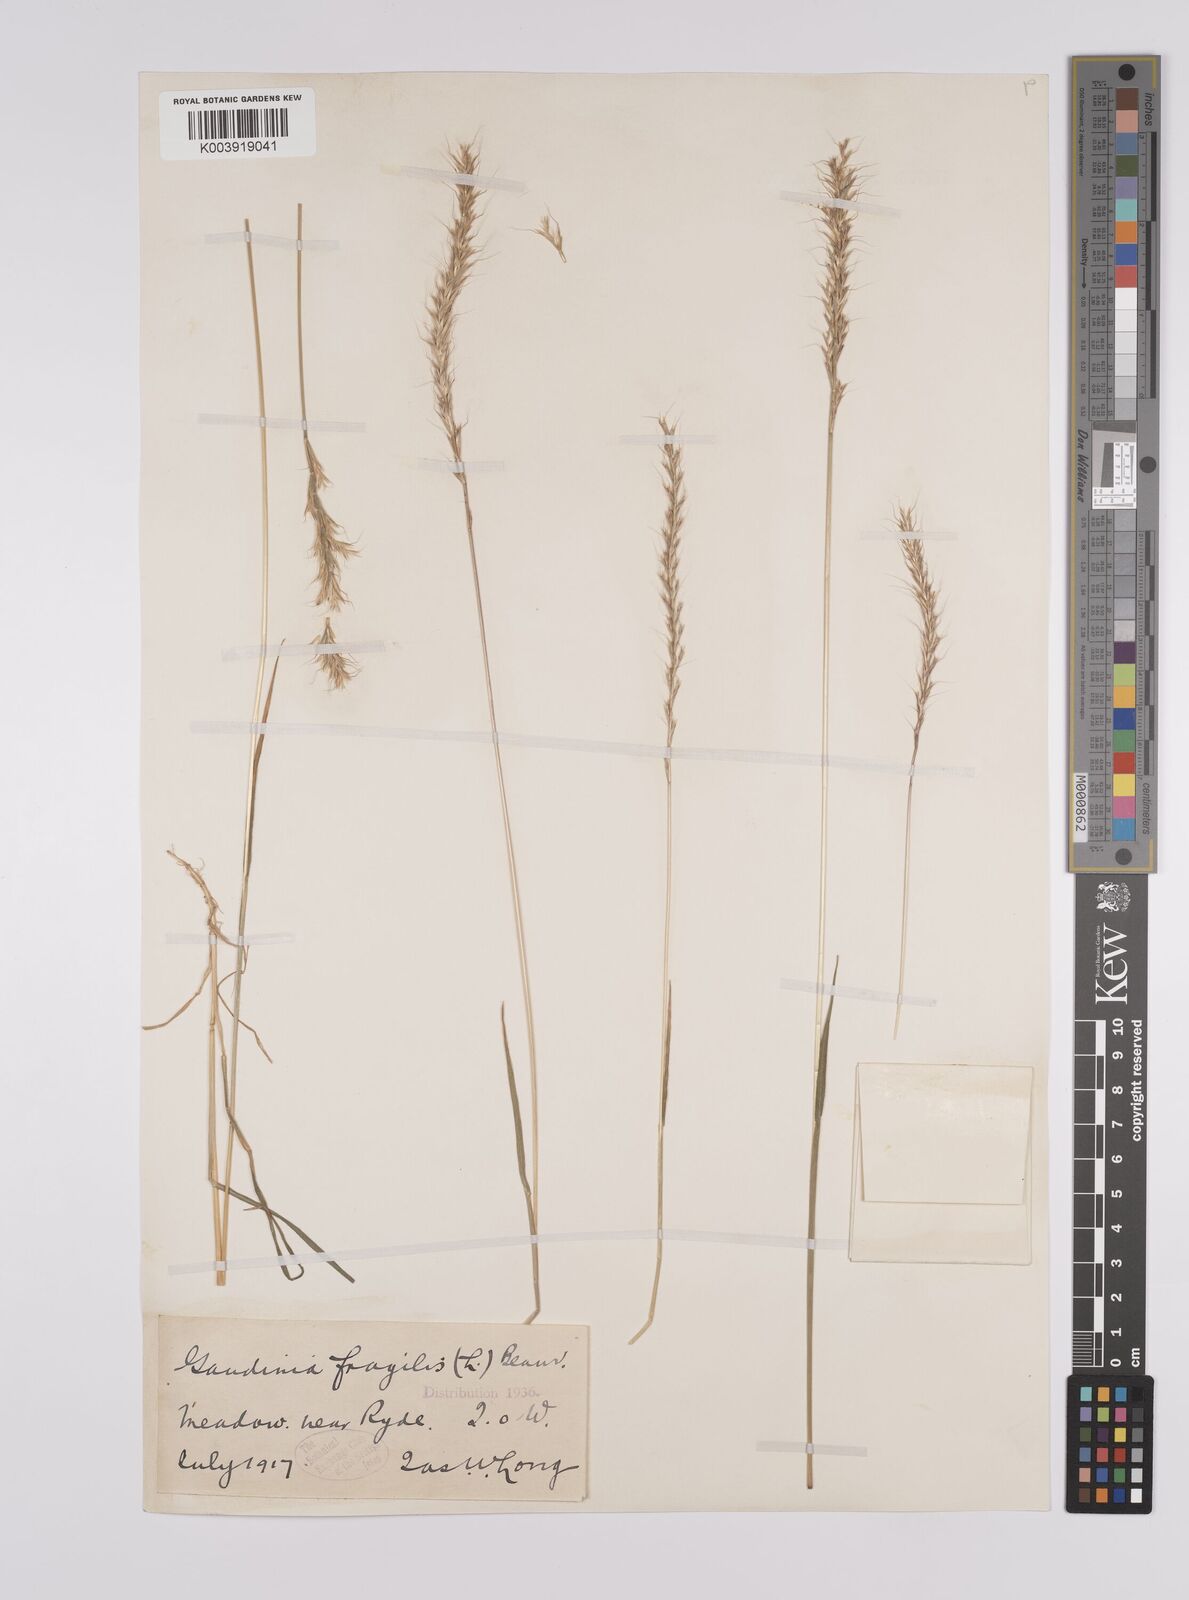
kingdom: Plantae
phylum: Tracheophyta
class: Liliopsida
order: Poales
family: Poaceae
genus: Gaudinia
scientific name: Gaudinia fragilis
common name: French oat-grass
